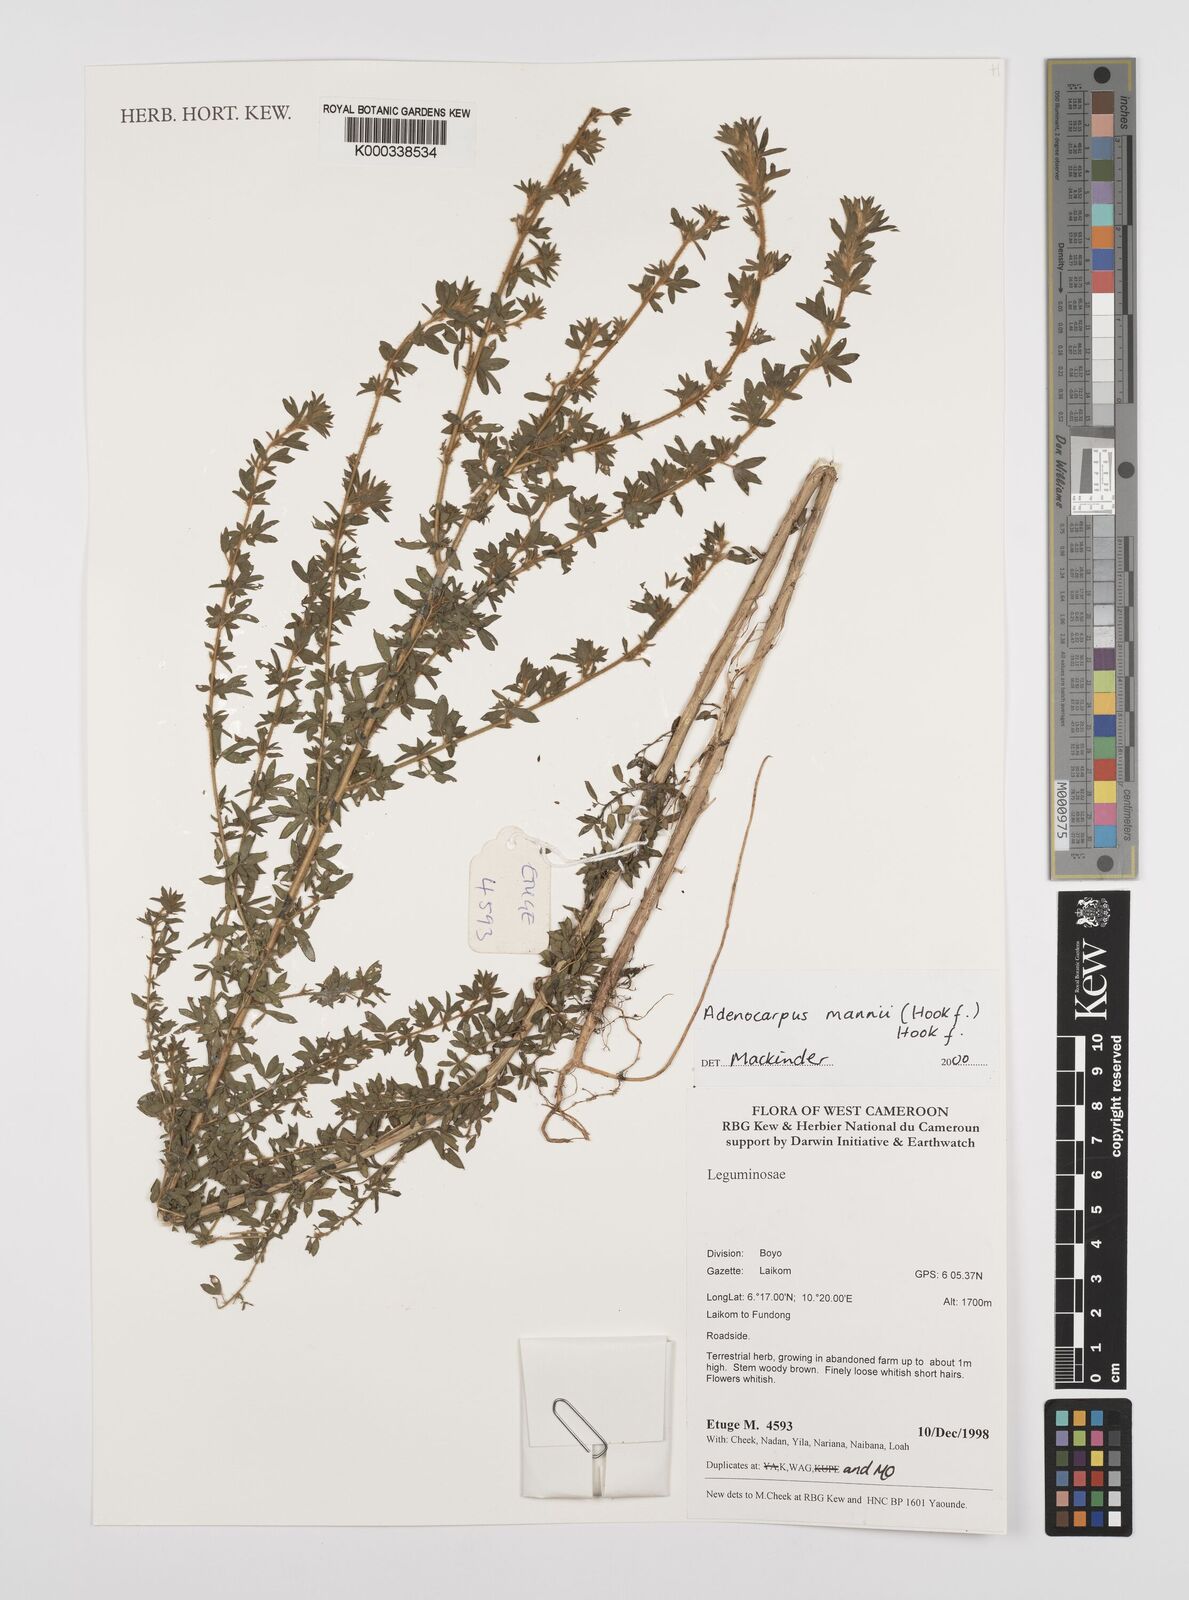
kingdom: Plantae
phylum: Tracheophyta
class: Magnoliopsida
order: Fabales
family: Fabaceae
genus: Adenocarpus
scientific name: Adenocarpus mannii
